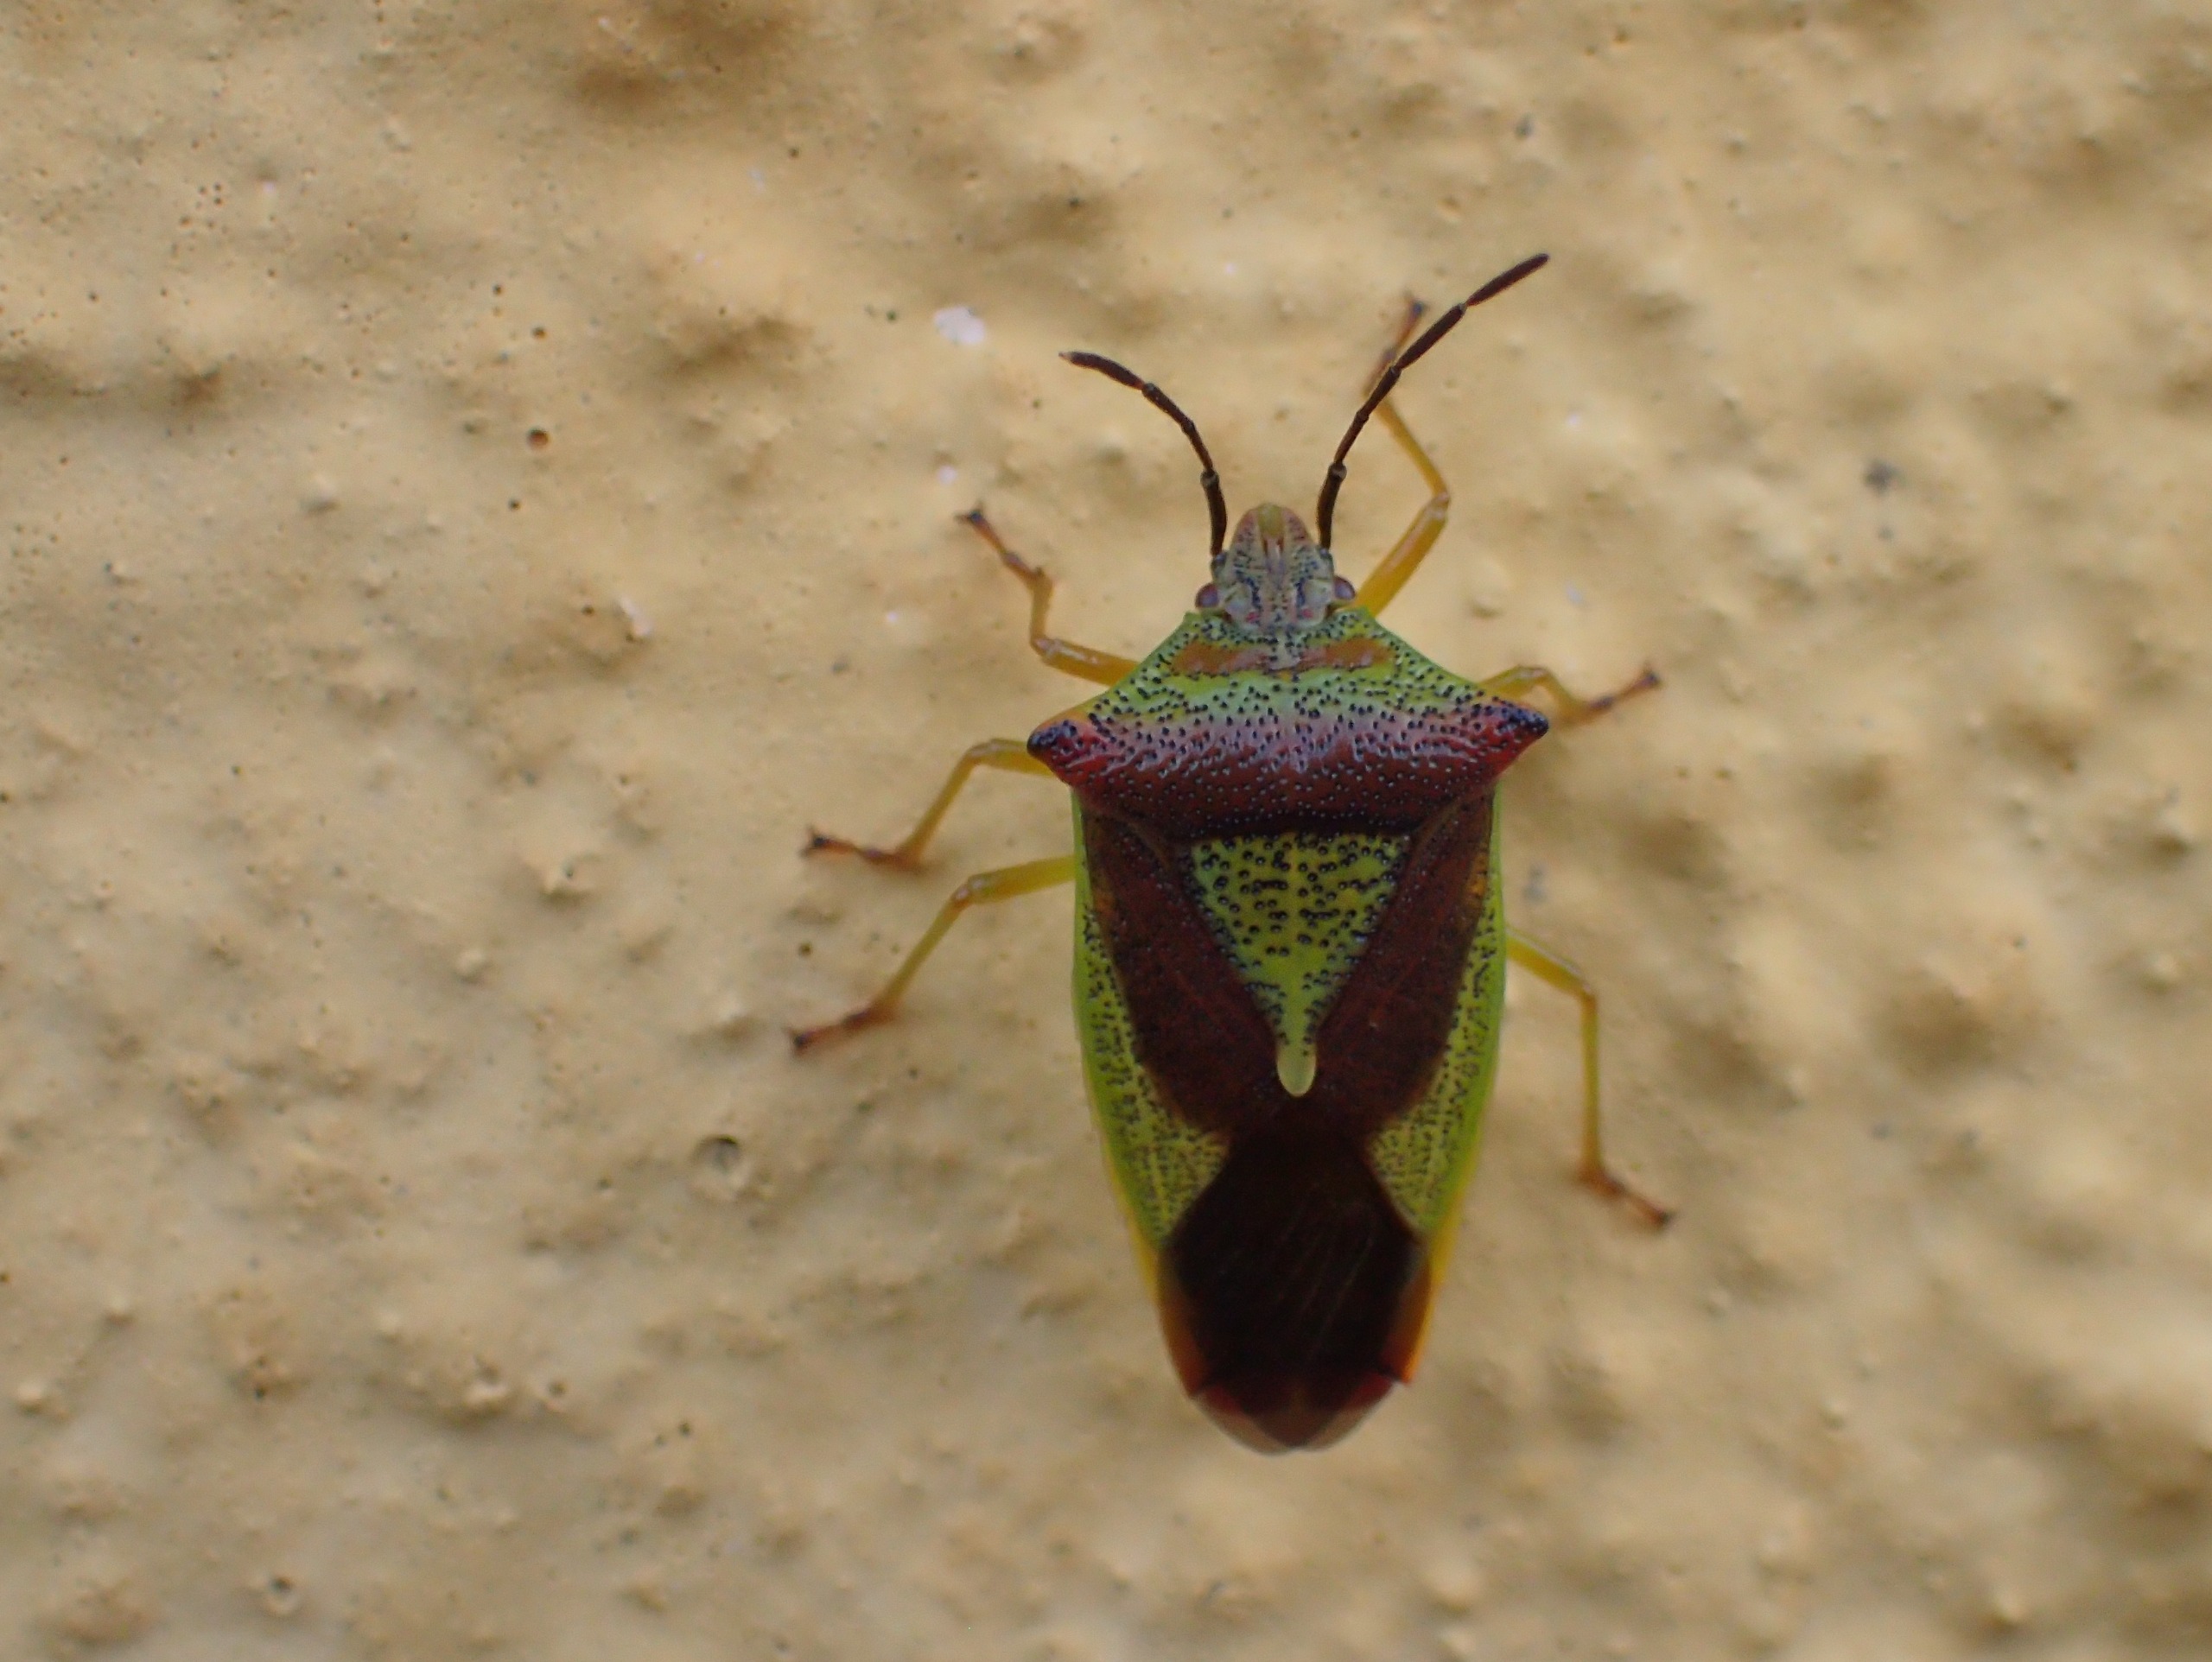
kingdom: Animalia
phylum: Arthropoda
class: Insecta
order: Hemiptera
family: Acanthosomatidae
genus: Acanthosoma
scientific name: Acanthosoma haemorrhoidale
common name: Stor løvtæge
